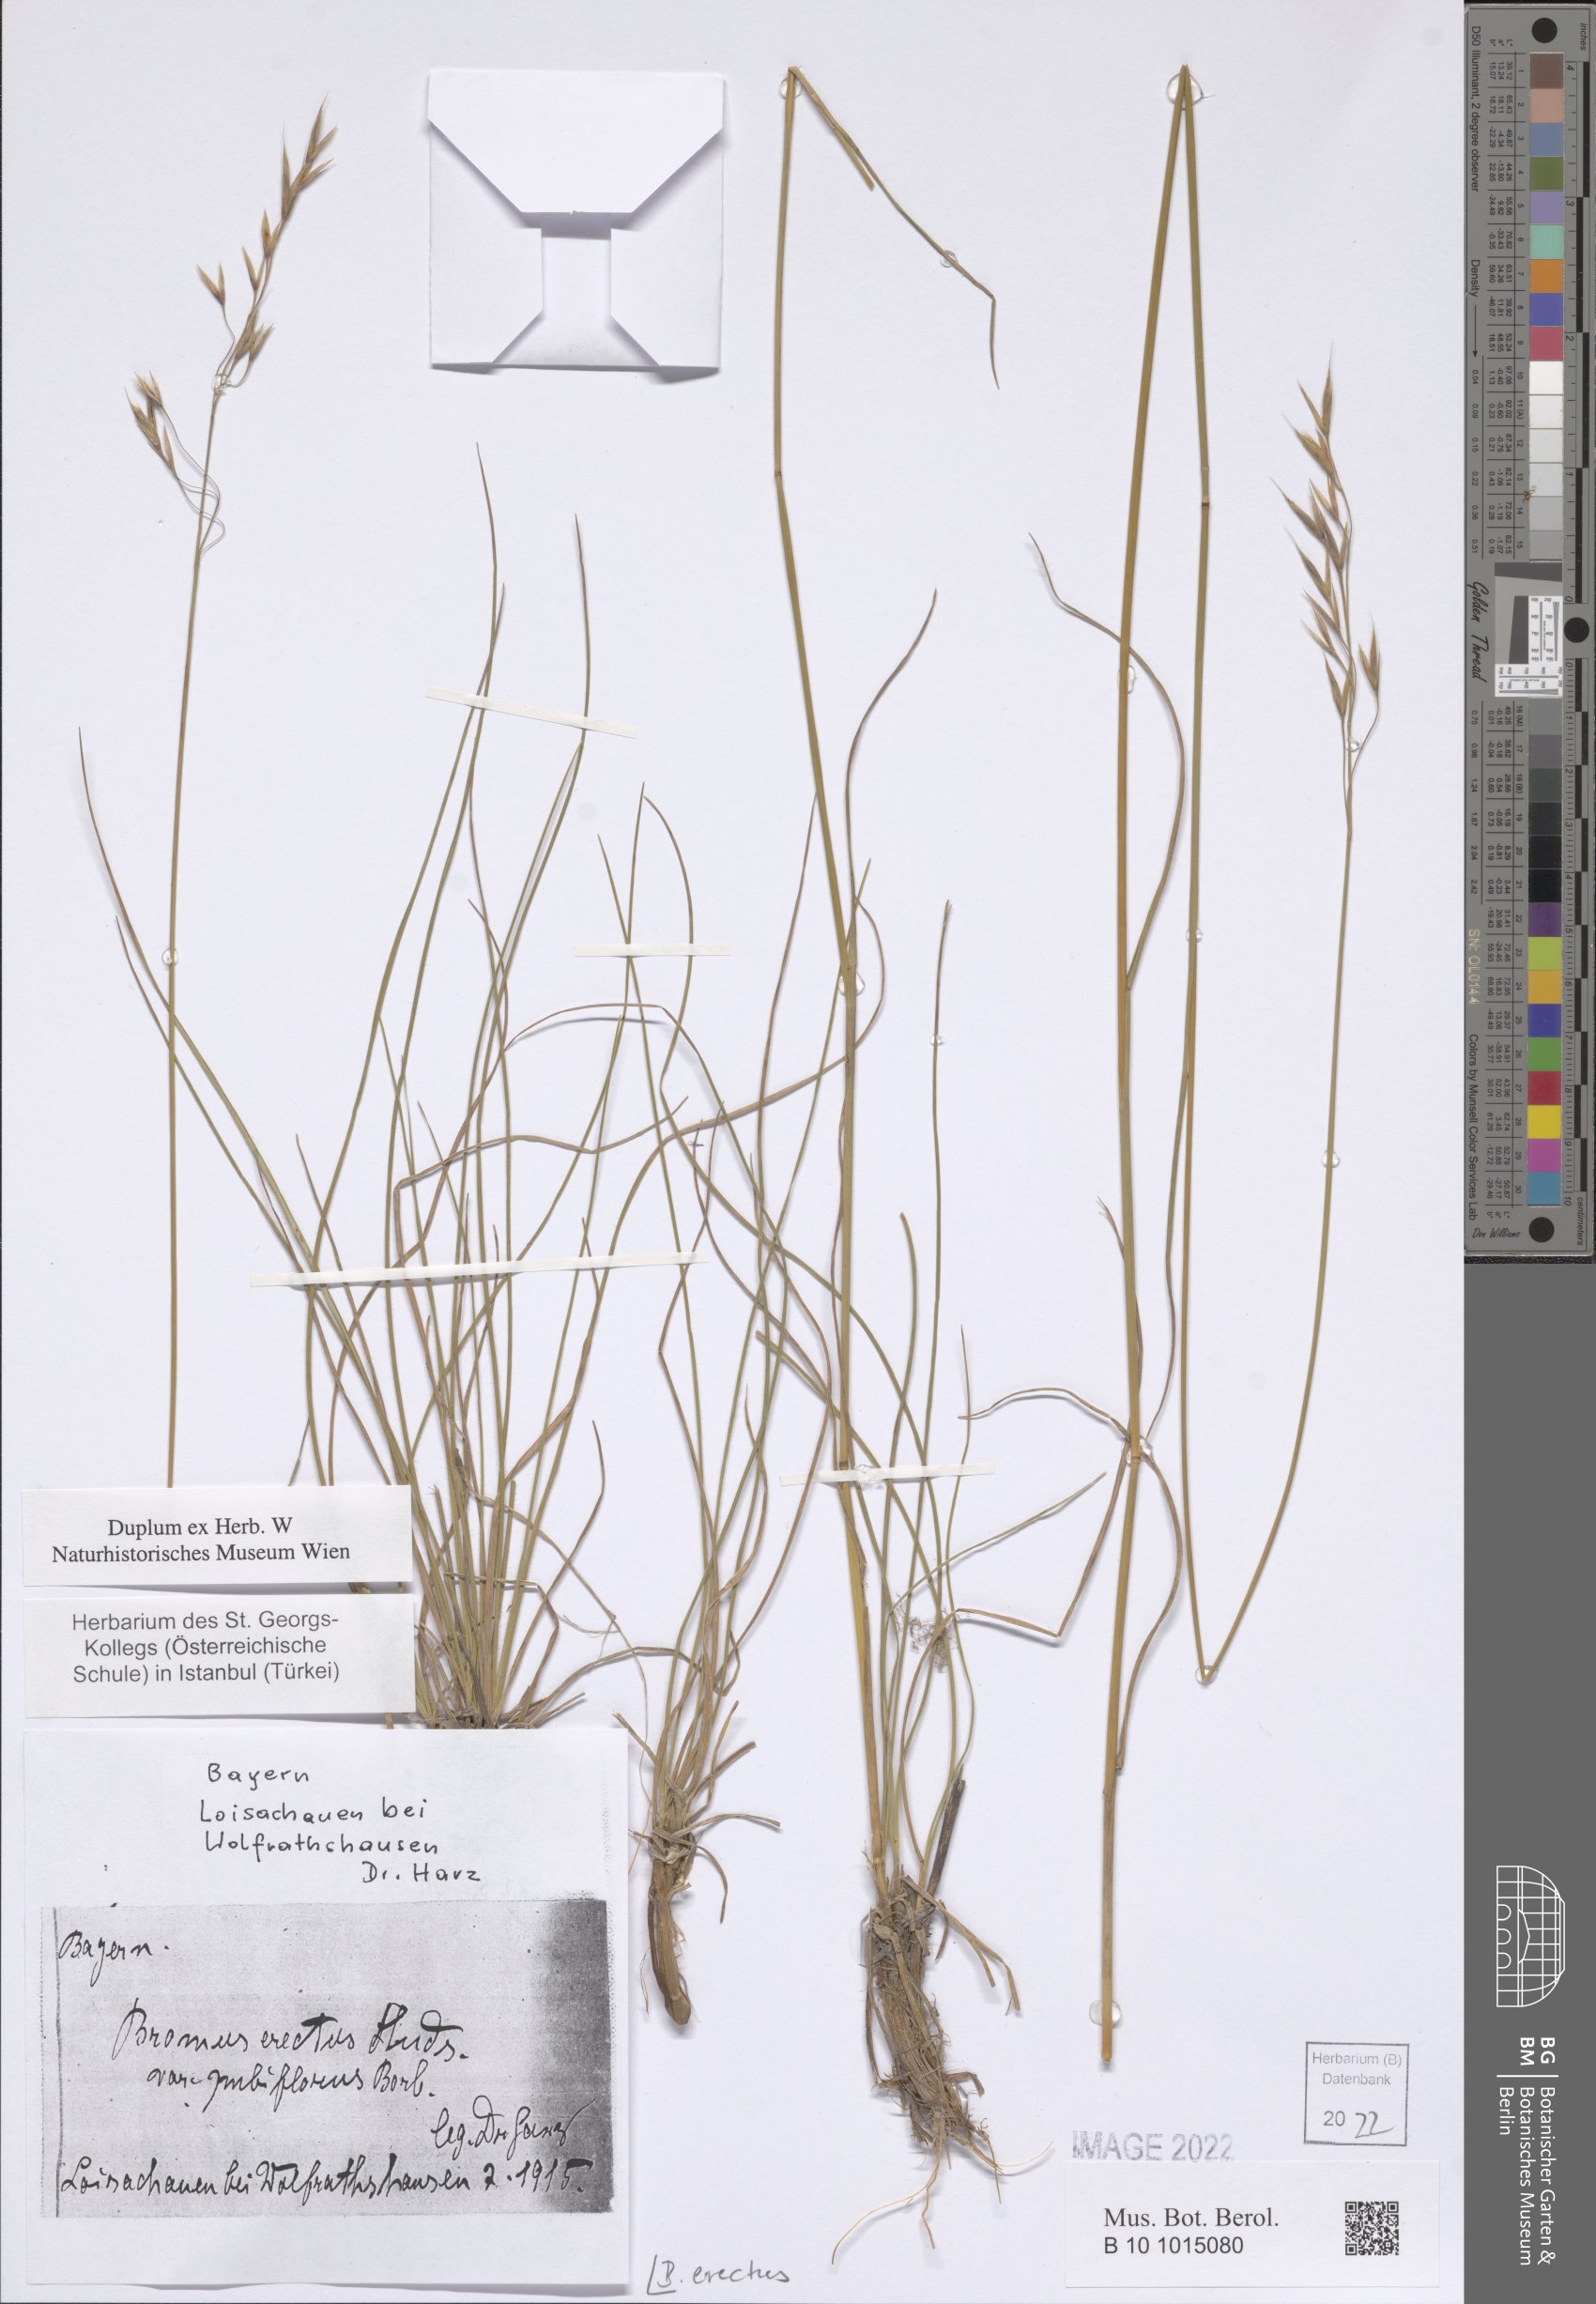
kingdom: Plantae
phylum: Tracheophyta
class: Liliopsida
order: Poales
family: Poaceae
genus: Bromus
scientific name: Bromus erectus
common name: Erect brome
